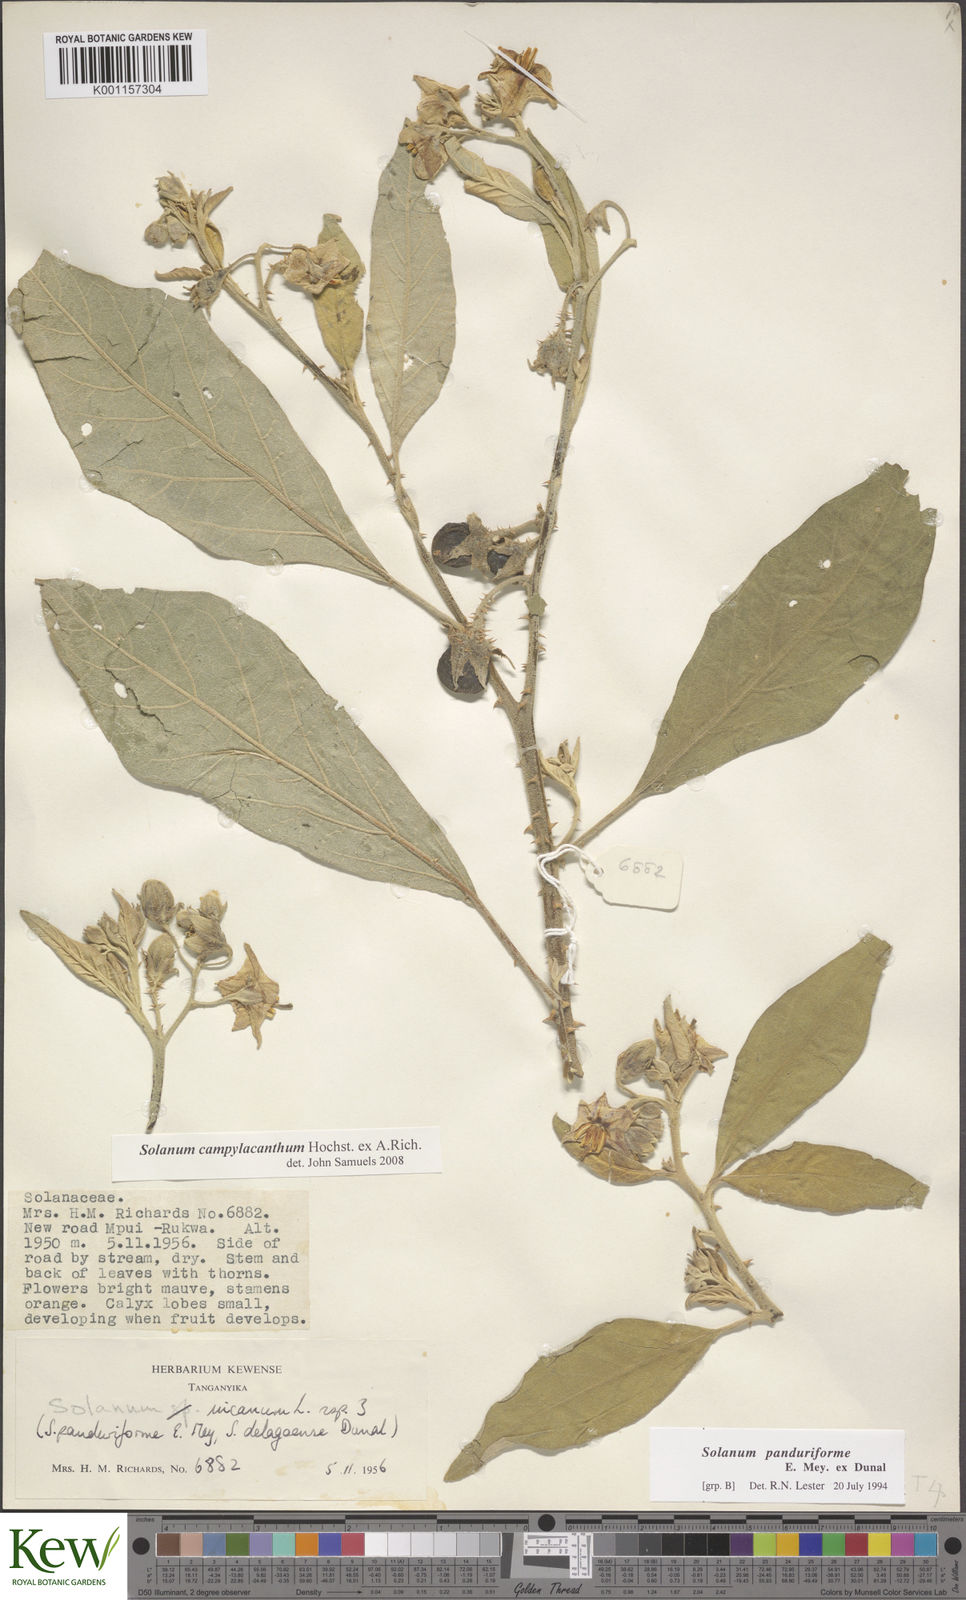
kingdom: Plantae
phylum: Tracheophyta
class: Magnoliopsida
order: Solanales
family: Solanaceae
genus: Solanum
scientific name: Solanum campylacanthum
